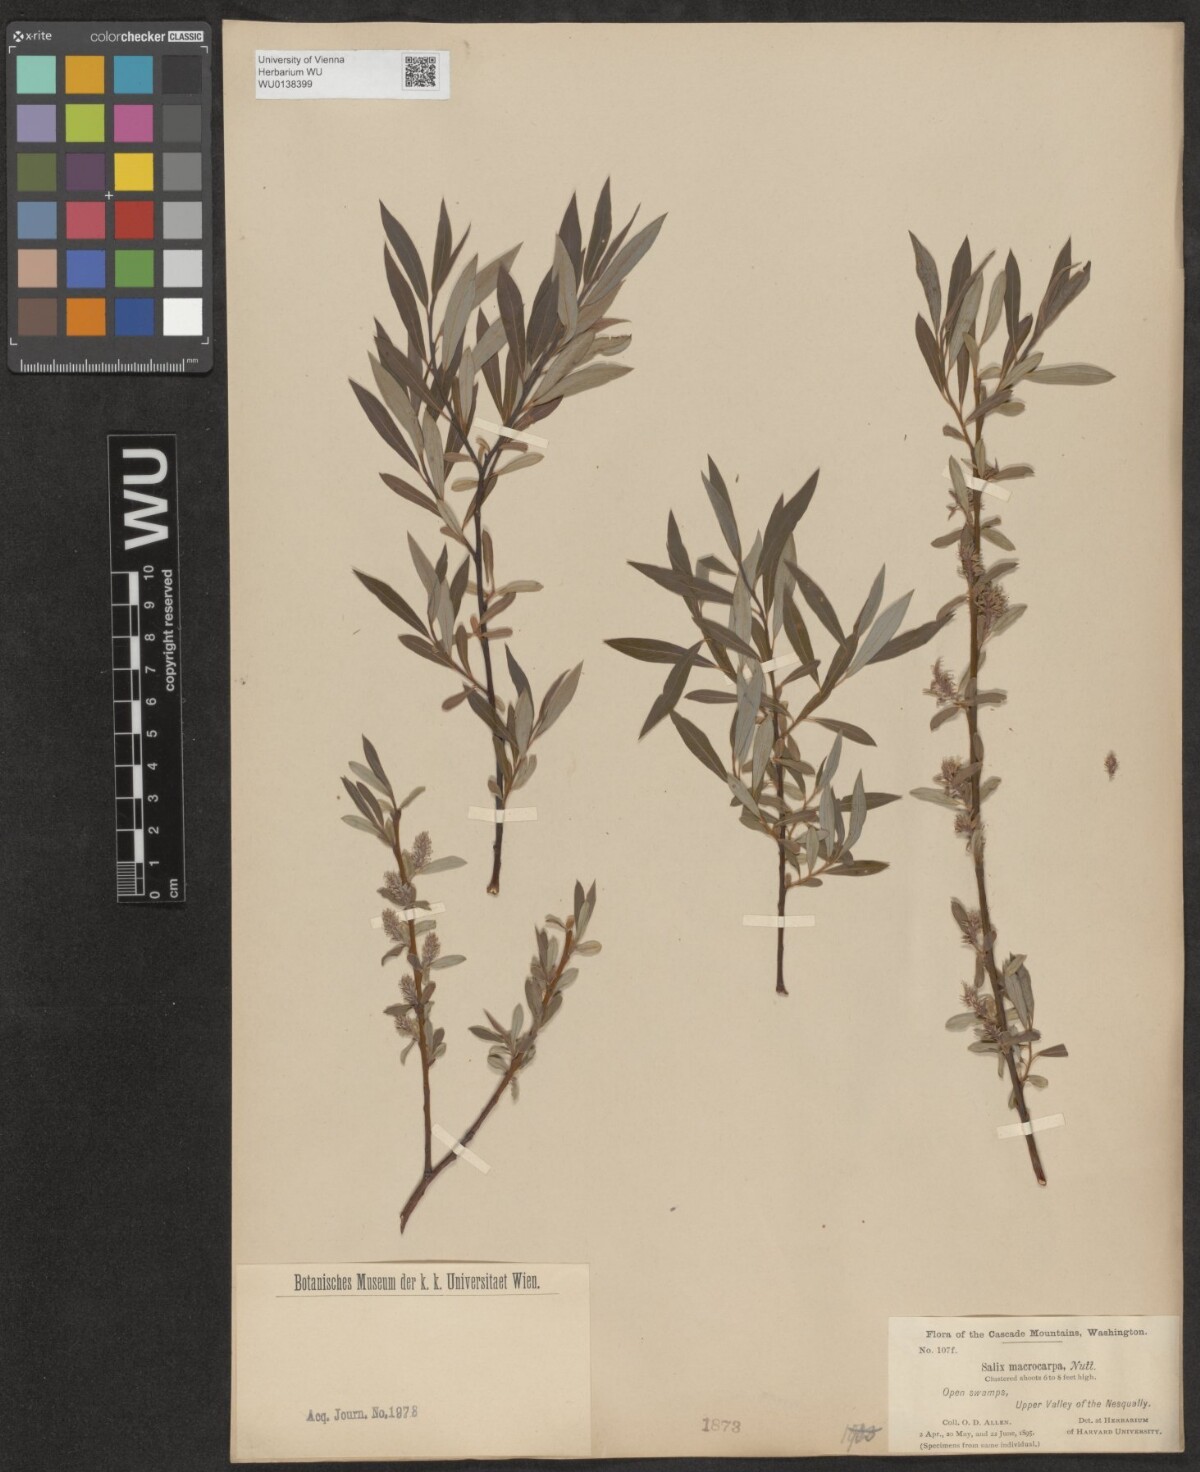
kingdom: Plantae
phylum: Tracheophyta
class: Magnoliopsida
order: Malpighiales
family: Salicaceae
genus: Salix
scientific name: Salix glauca
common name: Glaucous willow
